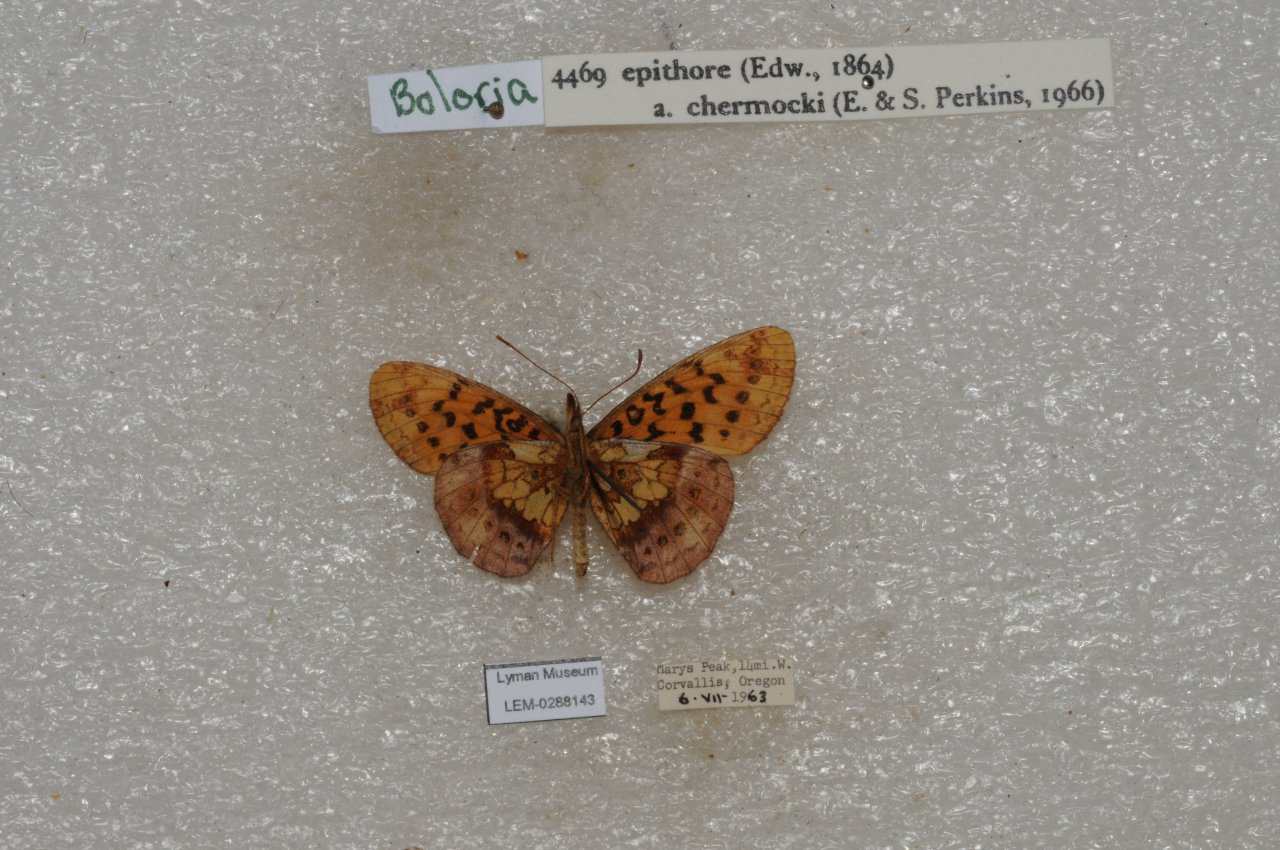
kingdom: Animalia
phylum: Arthropoda
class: Insecta
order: Lepidoptera
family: Nymphalidae
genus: Boloria
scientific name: Boloria epithore
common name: Pacific Fritillary
